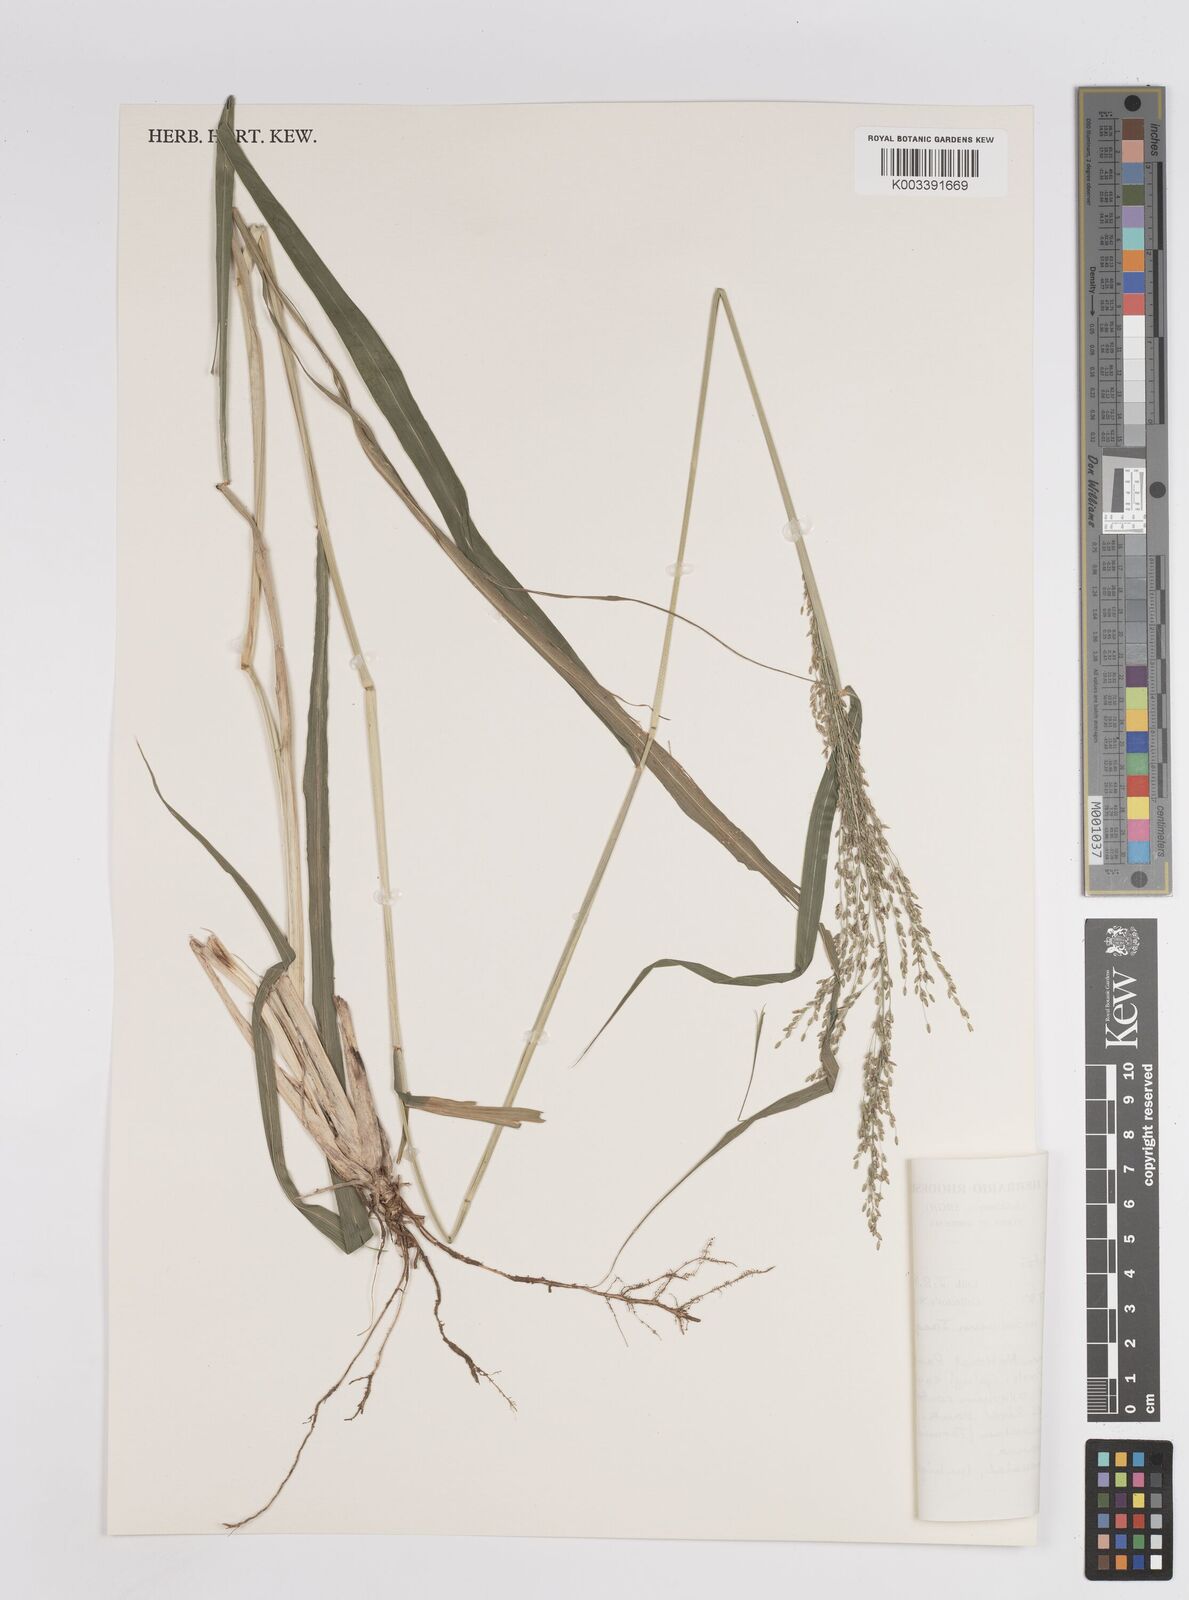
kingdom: Plantae
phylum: Tracheophyta
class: Liliopsida
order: Poales
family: Poaceae
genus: Megathyrsus
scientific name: Megathyrsus maximus
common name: Guineagrass
